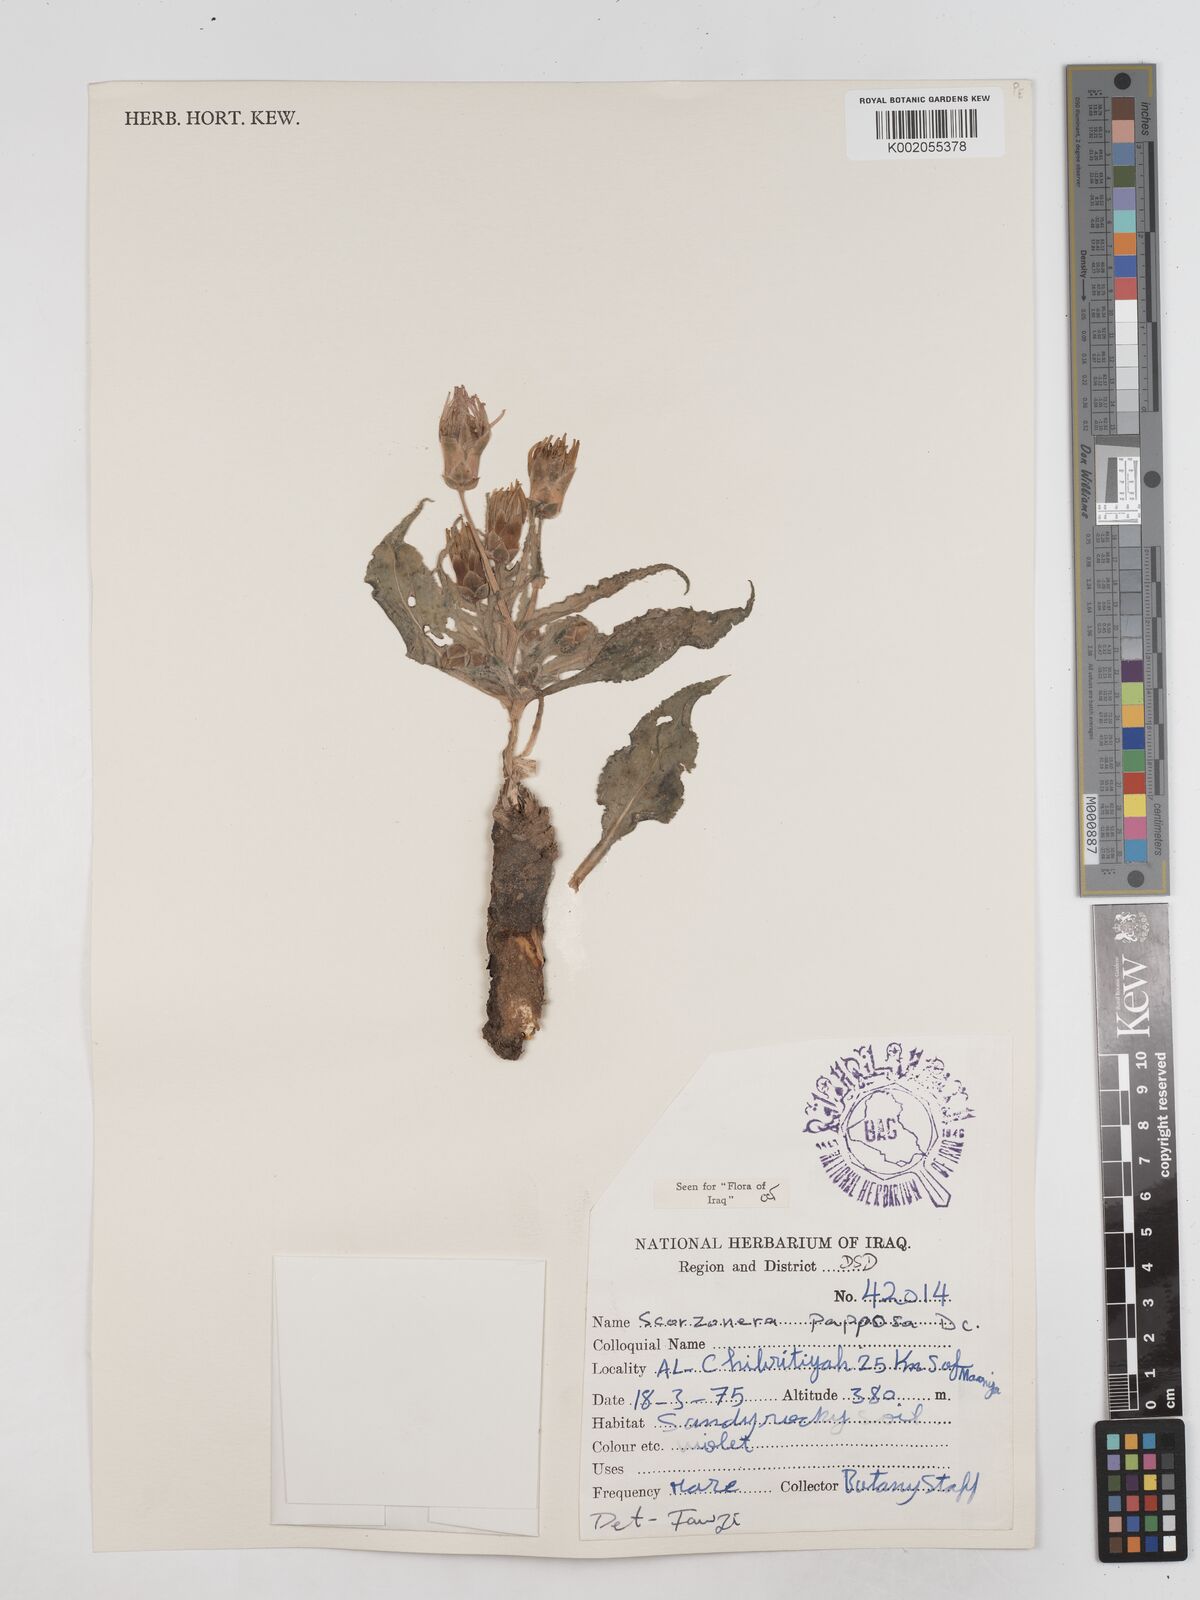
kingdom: Plantae
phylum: Tracheophyta
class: Magnoliopsida
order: Asterales
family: Asteraceae
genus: Pseudopodospermum
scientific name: Pseudopodospermum papposum
